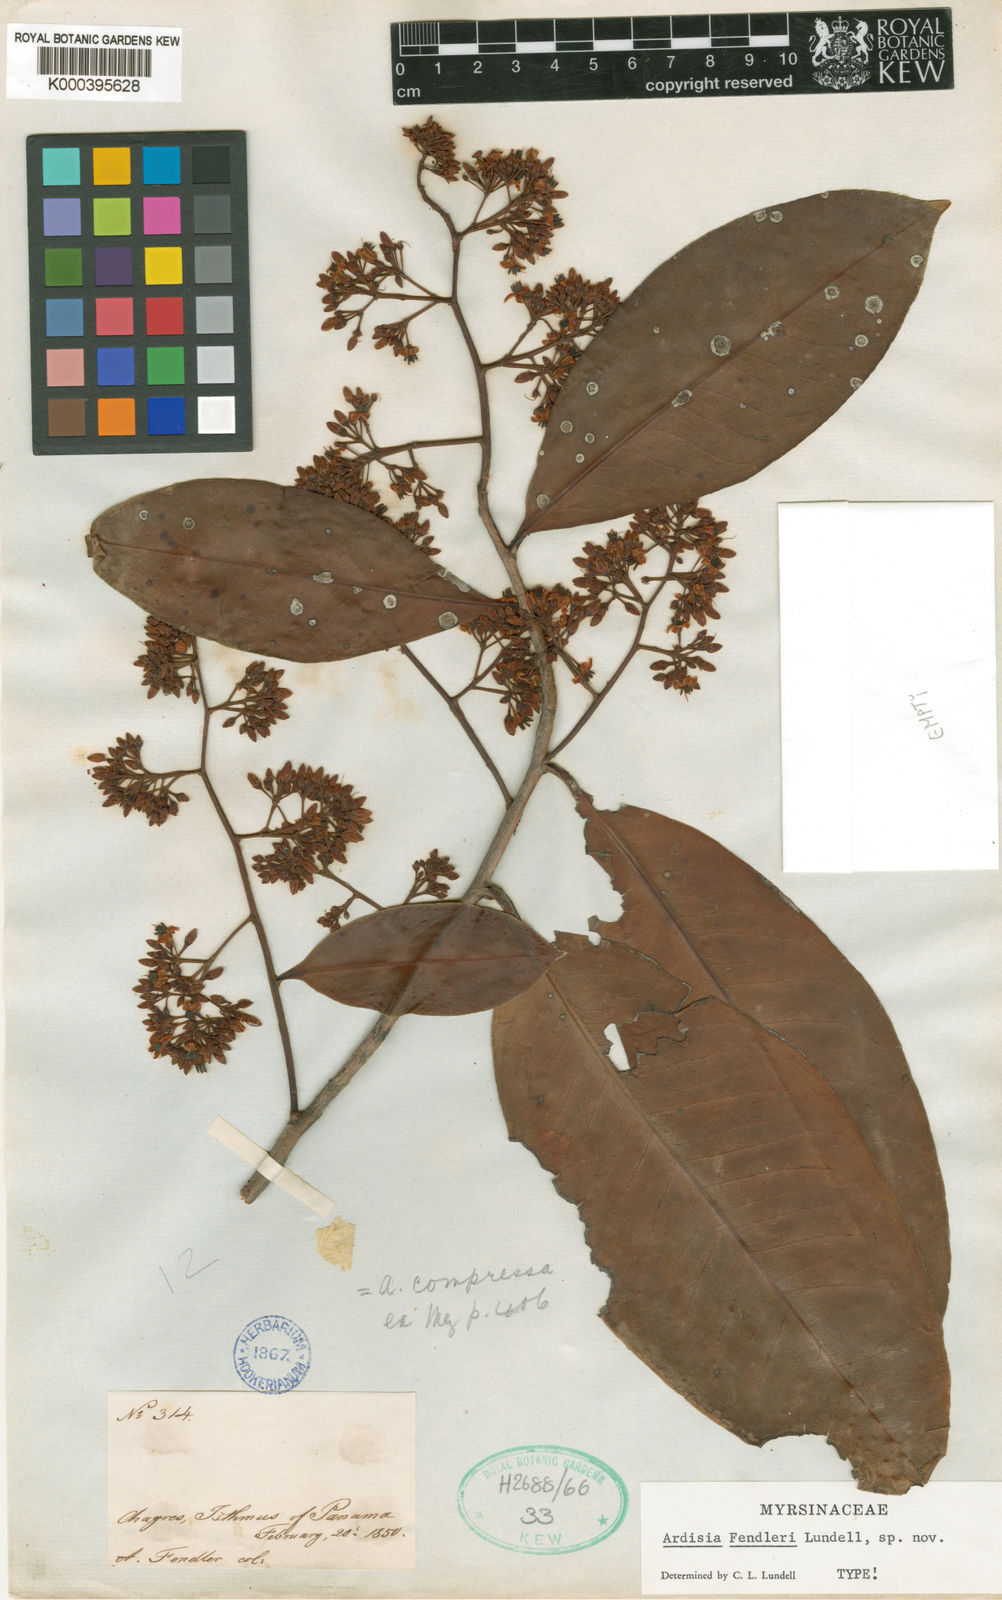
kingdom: Plantae
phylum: Tracheophyta
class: Magnoliopsida
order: Ericales
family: Primulaceae
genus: Ardisia
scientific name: Ardisia fendleri
